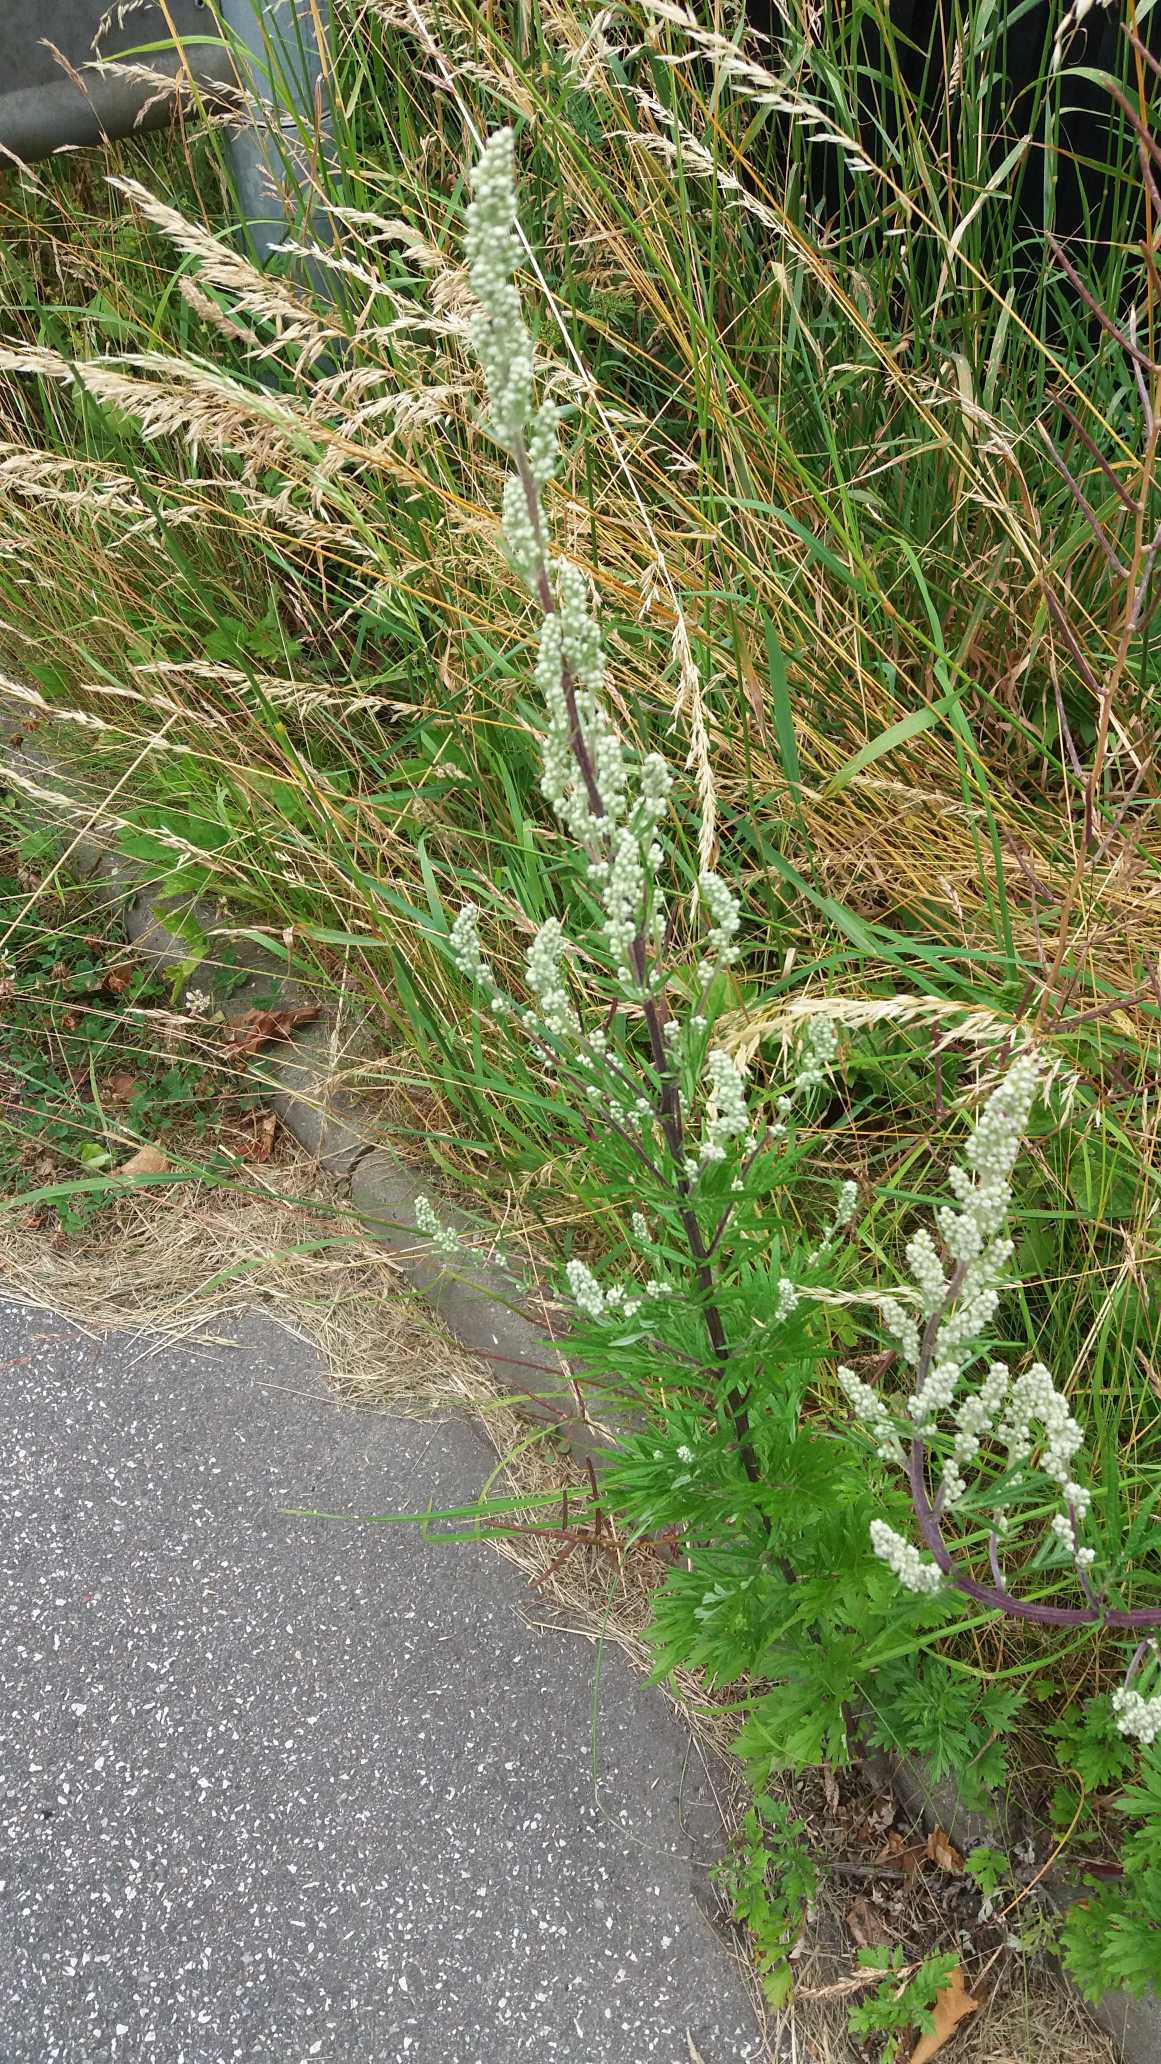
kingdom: Plantae
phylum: Tracheophyta
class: Magnoliopsida
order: Asterales
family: Asteraceae
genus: Artemisia
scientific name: Artemisia vulgaris
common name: Grå-bynke
